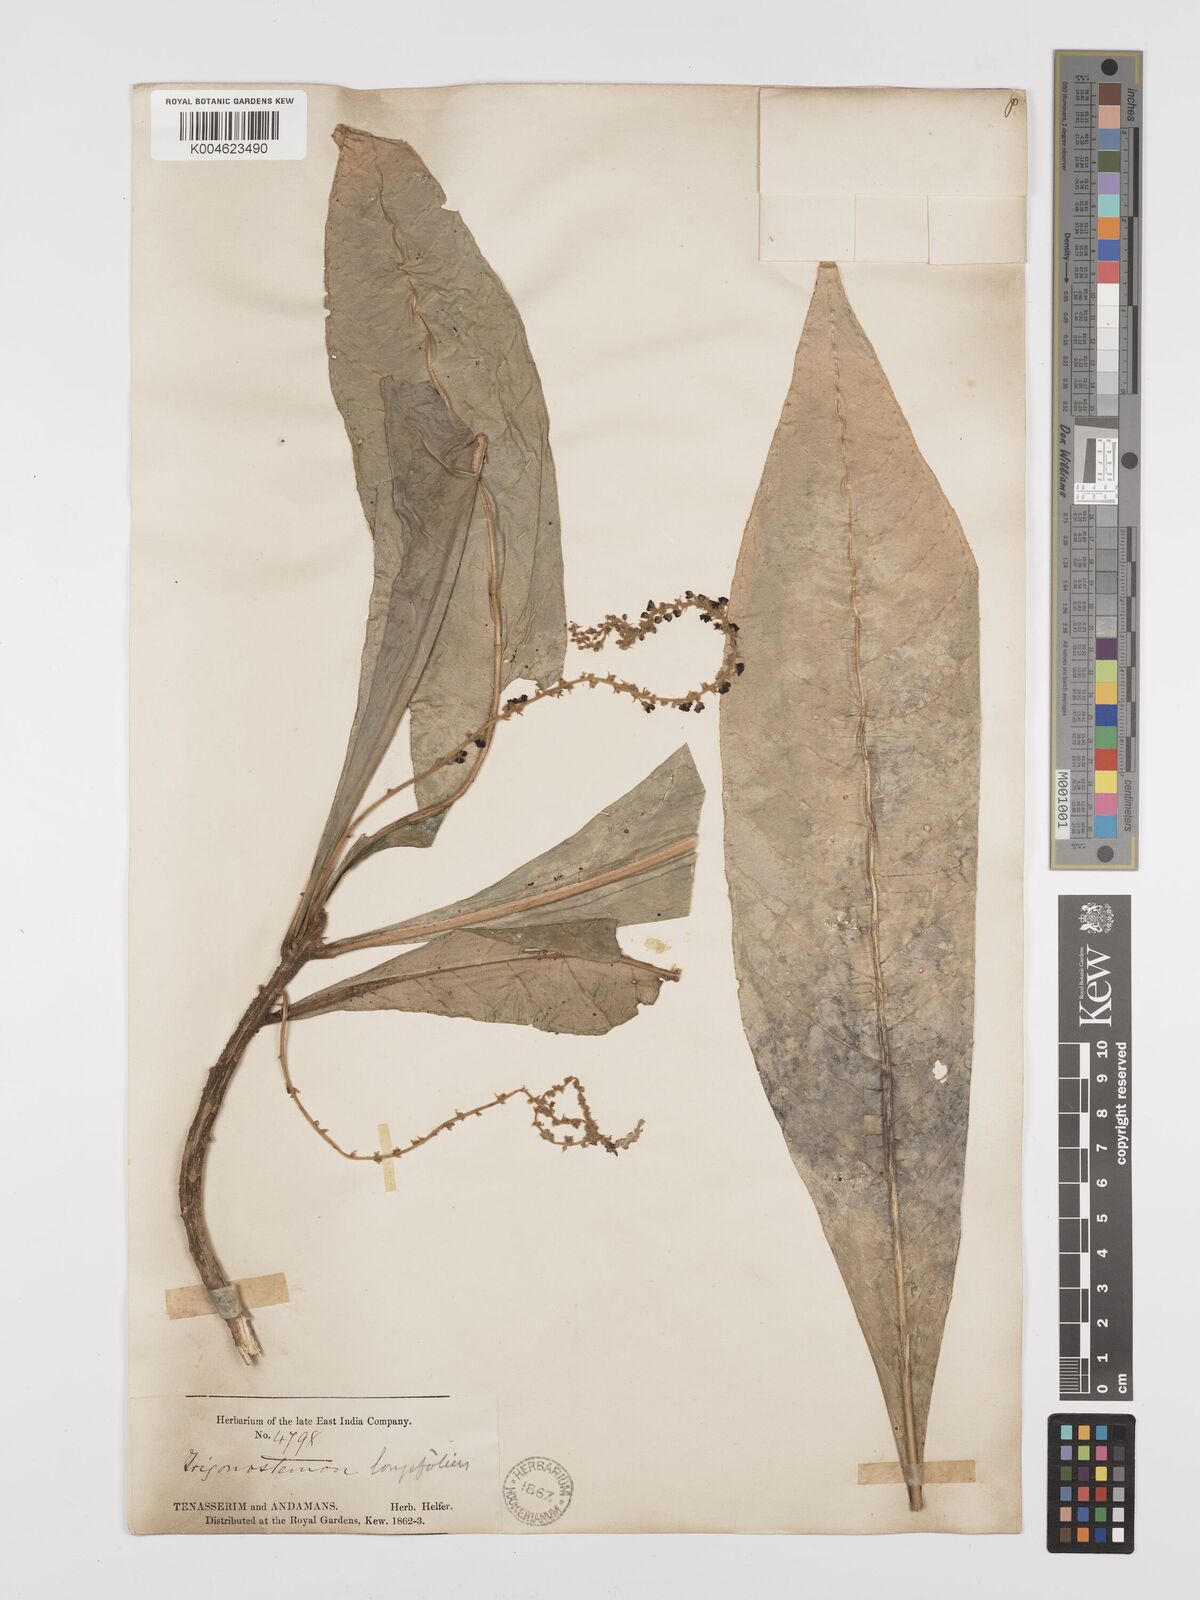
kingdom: Plantae
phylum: Tracheophyta
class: Magnoliopsida
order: Malpighiales
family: Euphorbiaceae
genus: Trigonostemon
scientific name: Trigonostemon longifolius
